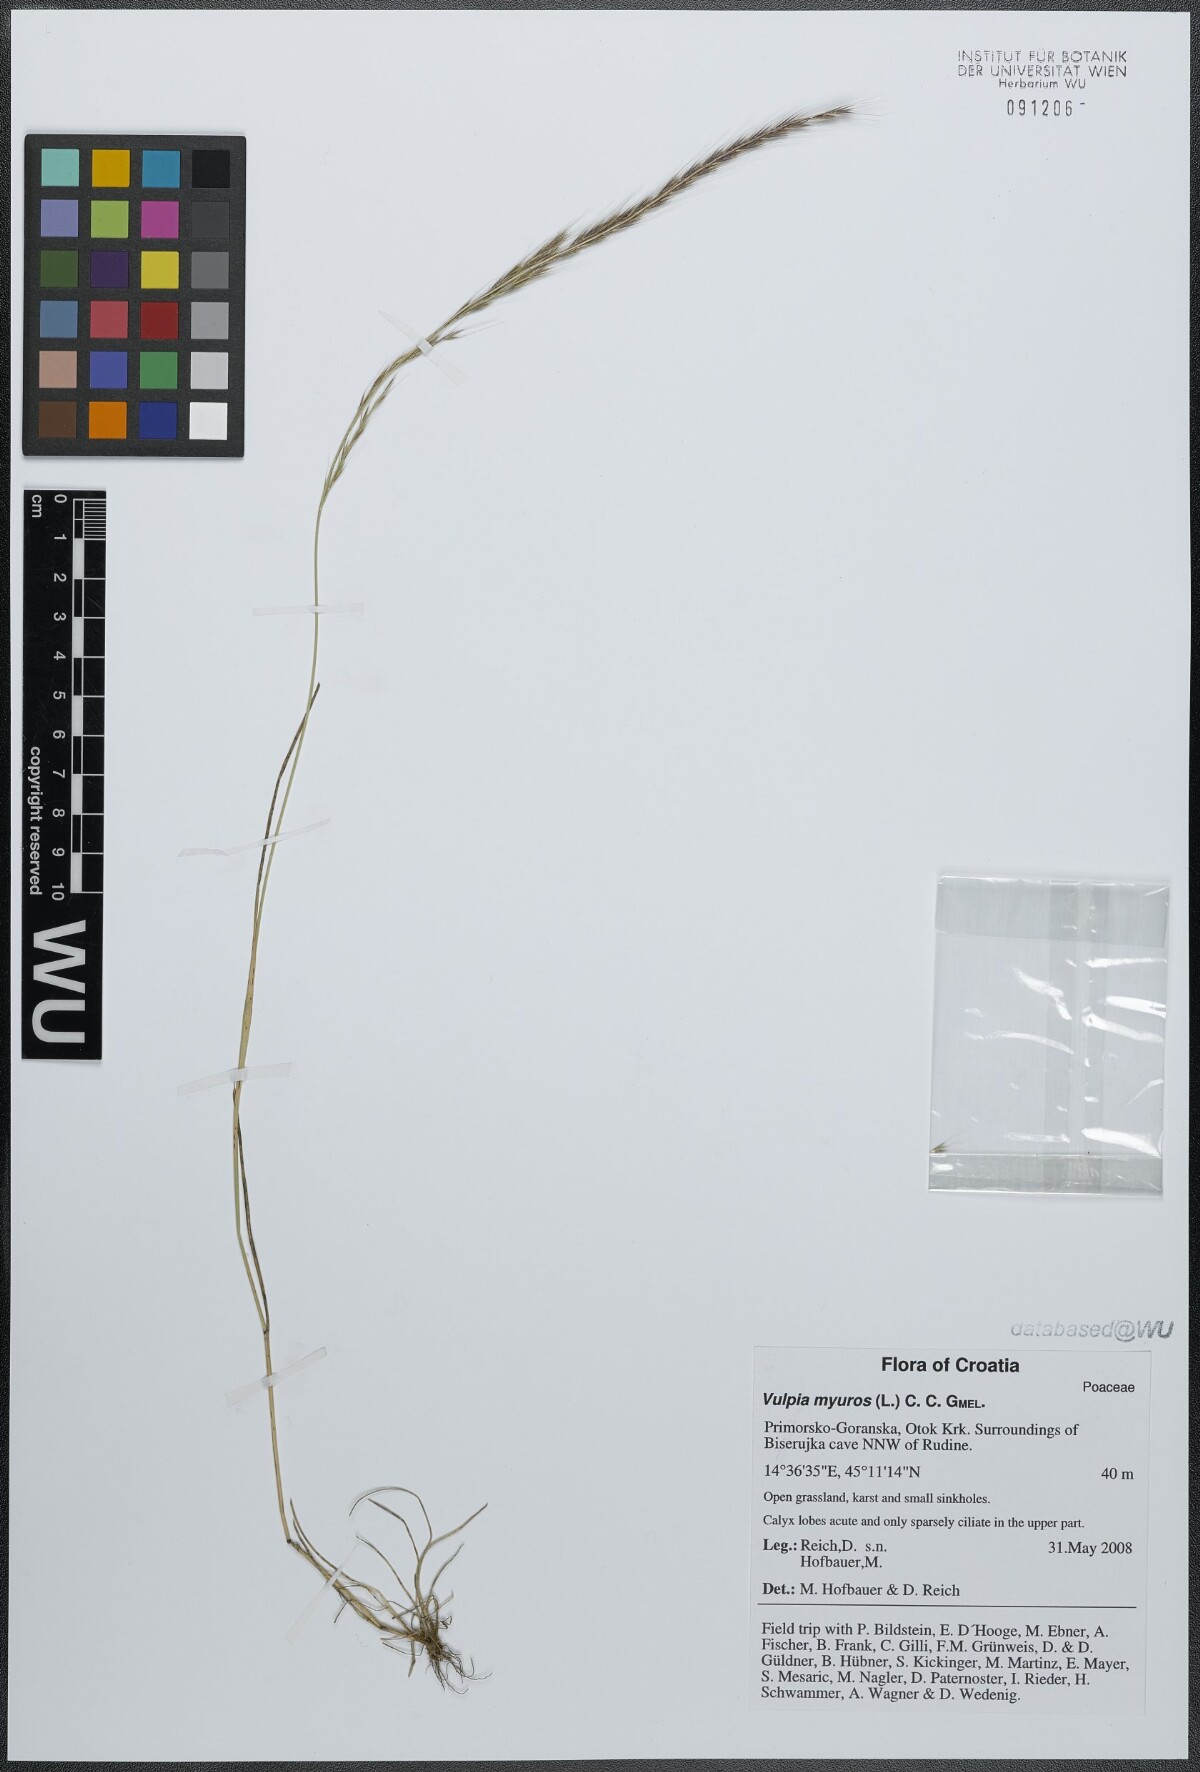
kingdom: Plantae
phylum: Tracheophyta
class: Liliopsida
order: Poales
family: Poaceae
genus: Festuca
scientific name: Festuca myuros
